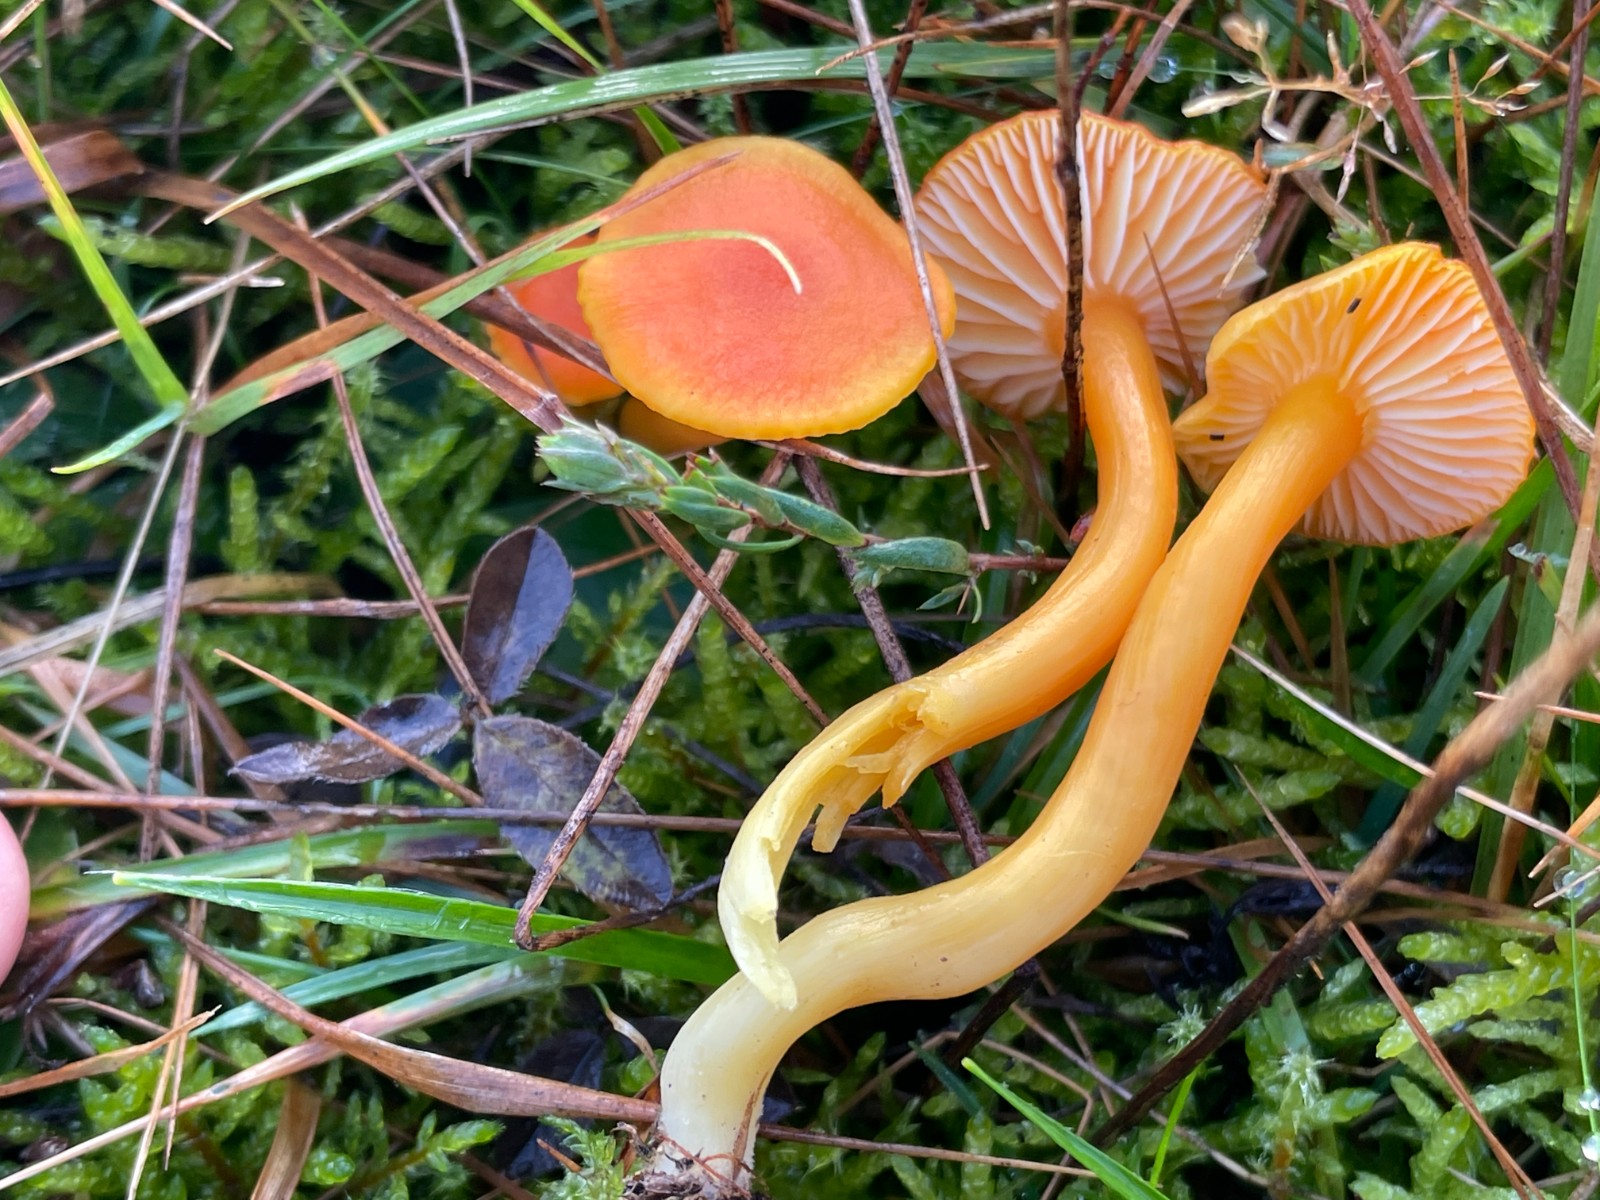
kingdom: Fungi
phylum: Basidiomycota
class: Agaricomycetes
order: Agaricales
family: Hygrophoraceae
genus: Hygrocybe
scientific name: Hygrocybe reidii
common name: honning-vokshat
